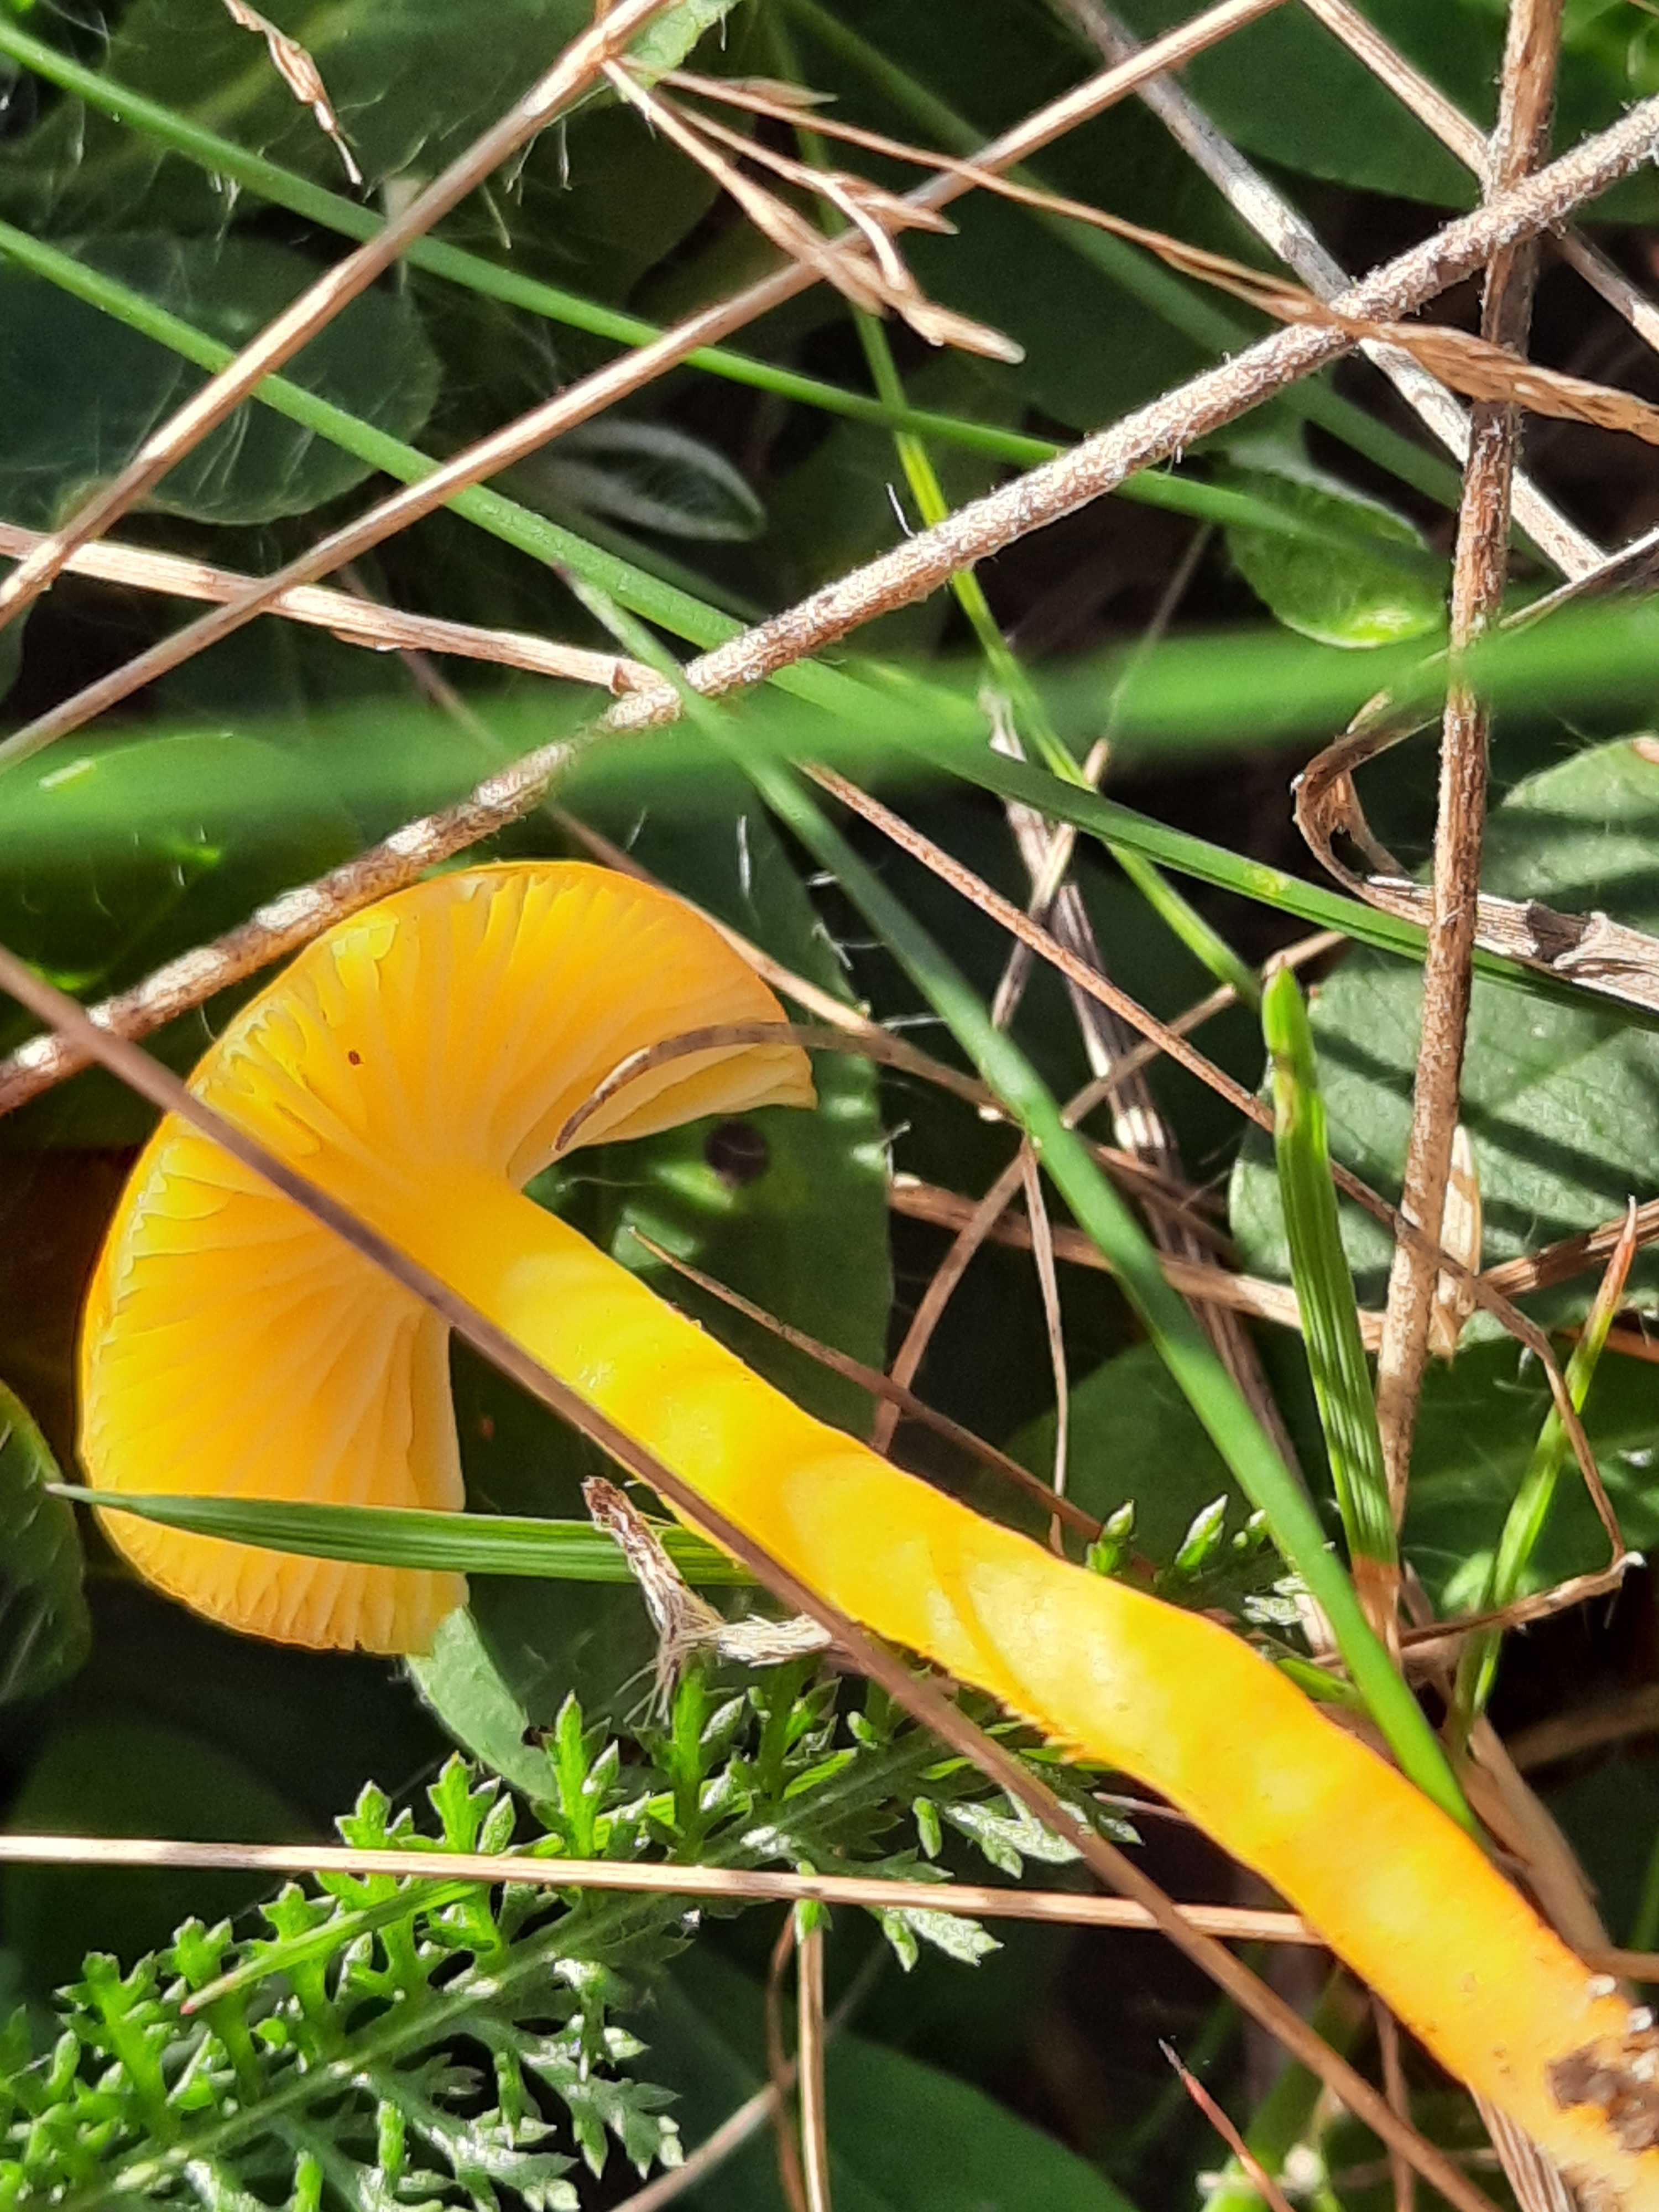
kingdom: Fungi
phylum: Basidiomycota
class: Agaricomycetes
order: Agaricales
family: Hygrophoraceae
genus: Hygrocybe
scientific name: Hygrocybe ceracea
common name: voksgul vokshat
